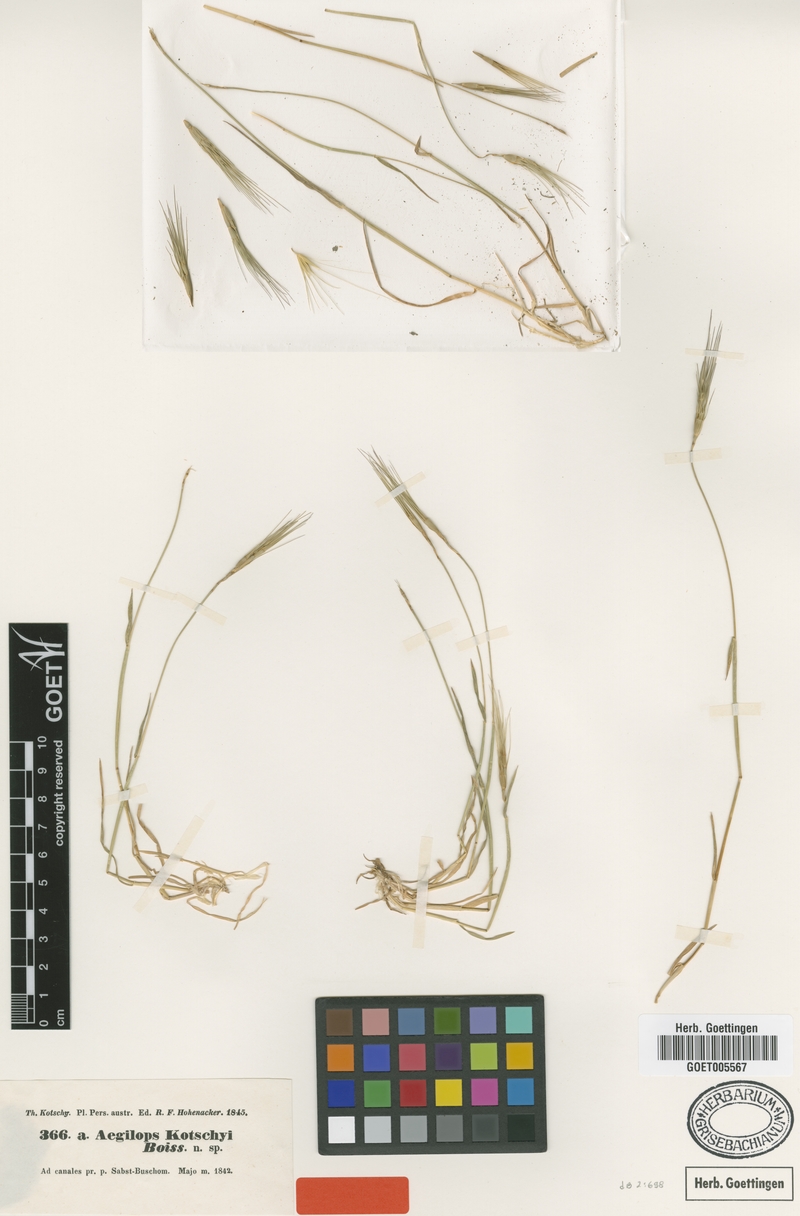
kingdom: Plantae
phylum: Tracheophyta
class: Liliopsida
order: Poales
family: Poaceae
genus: Aegilops
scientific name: Aegilops kotschyi
